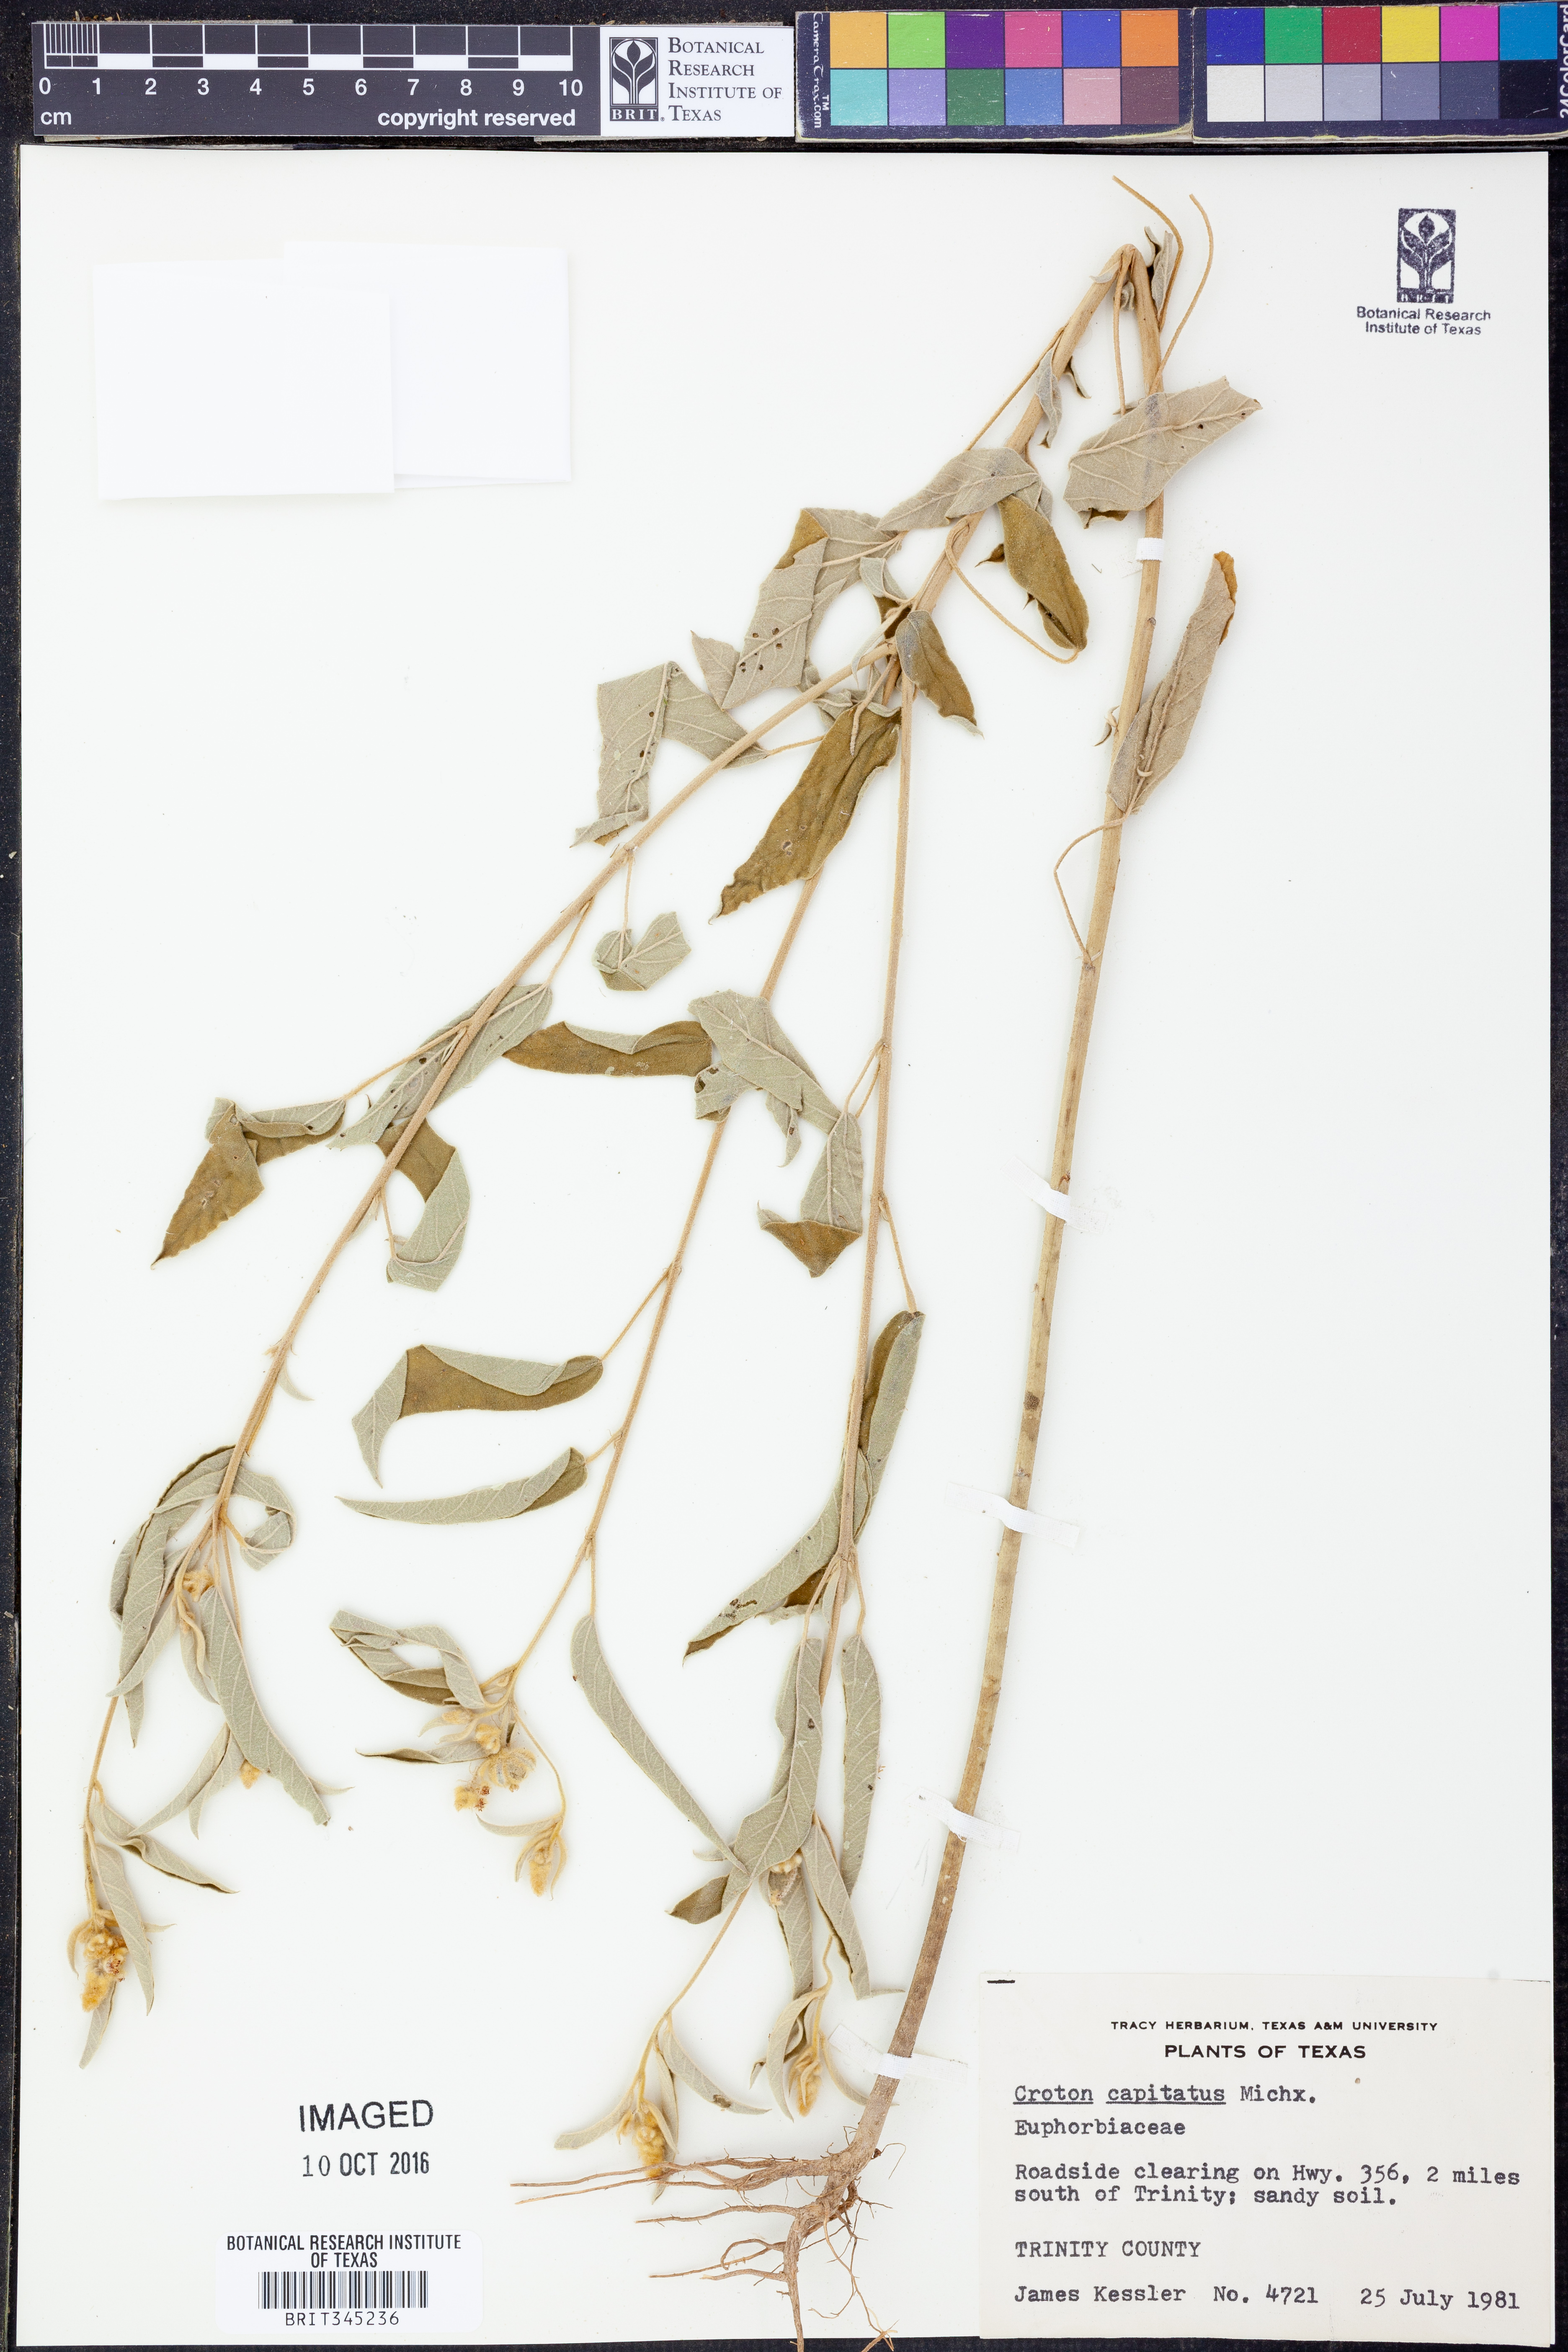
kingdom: Plantae
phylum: Tracheophyta
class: Magnoliopsida
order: Malpighiales
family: Euphorbiaceae
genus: Croton
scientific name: Croton capitatus
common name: Woolly croton
